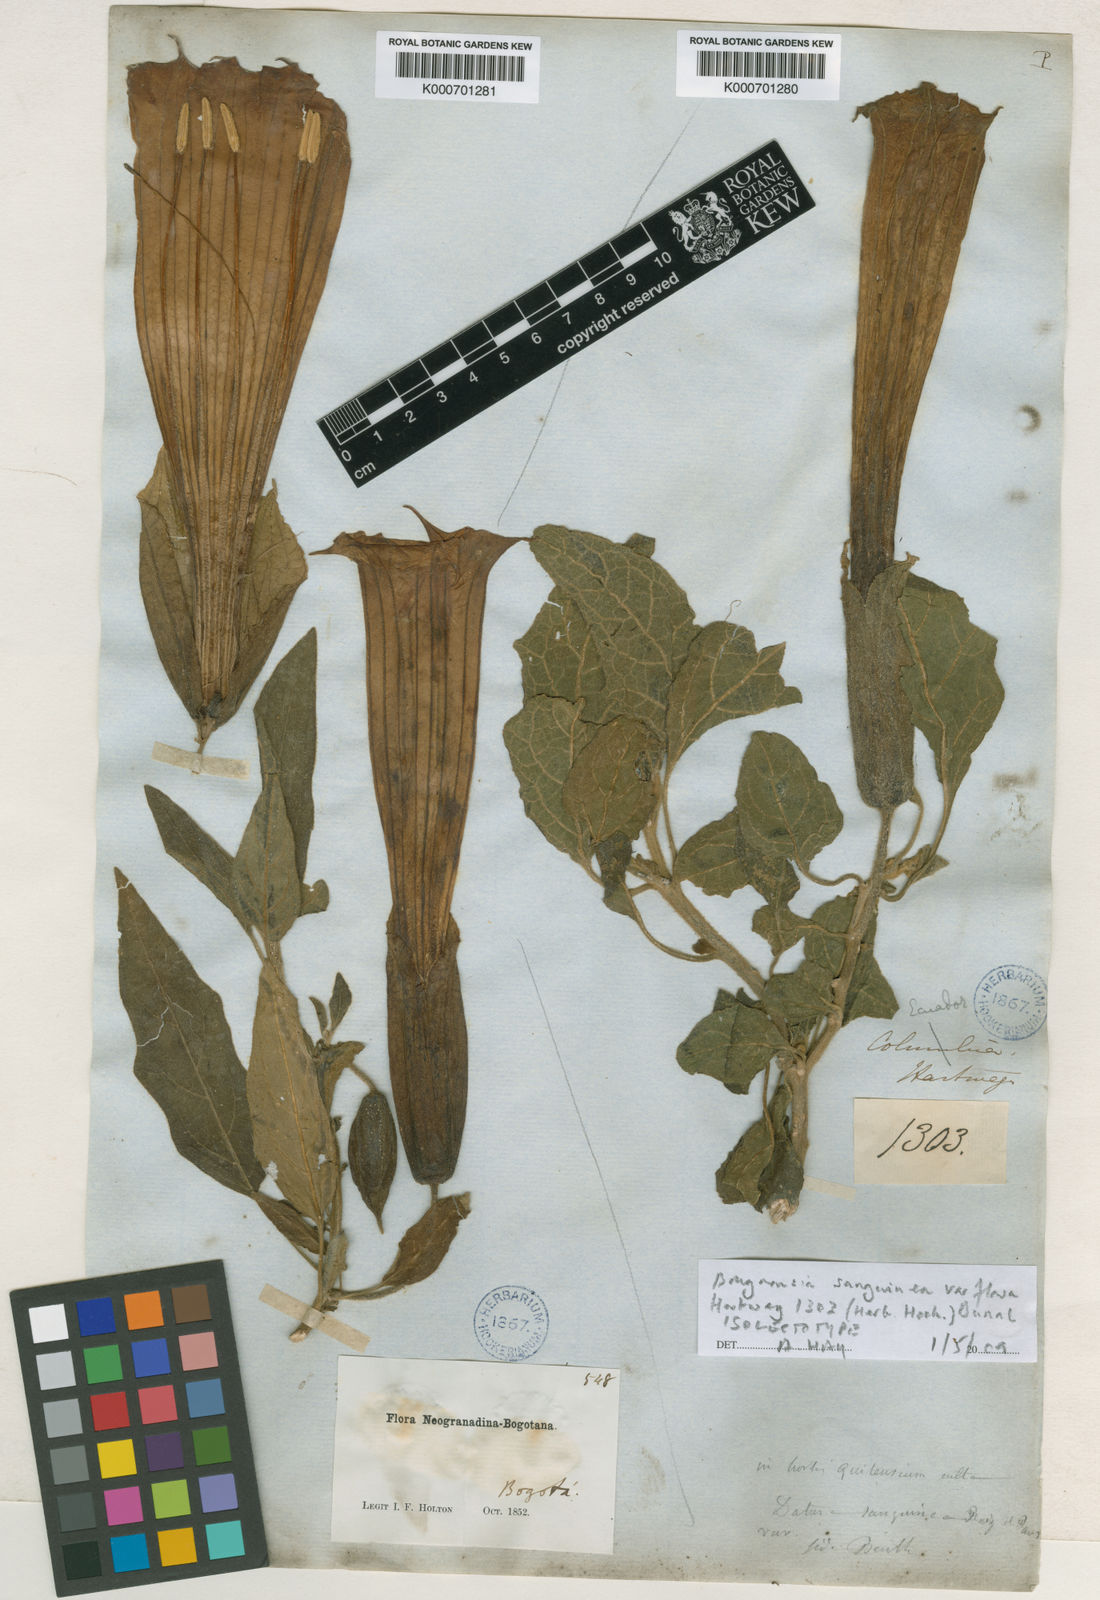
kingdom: Plantae
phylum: Tracheophyta
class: Magnoliopsida
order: Solanales
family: Solanaceae
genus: Brugmansia
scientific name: Brugmansia vulcanicola
